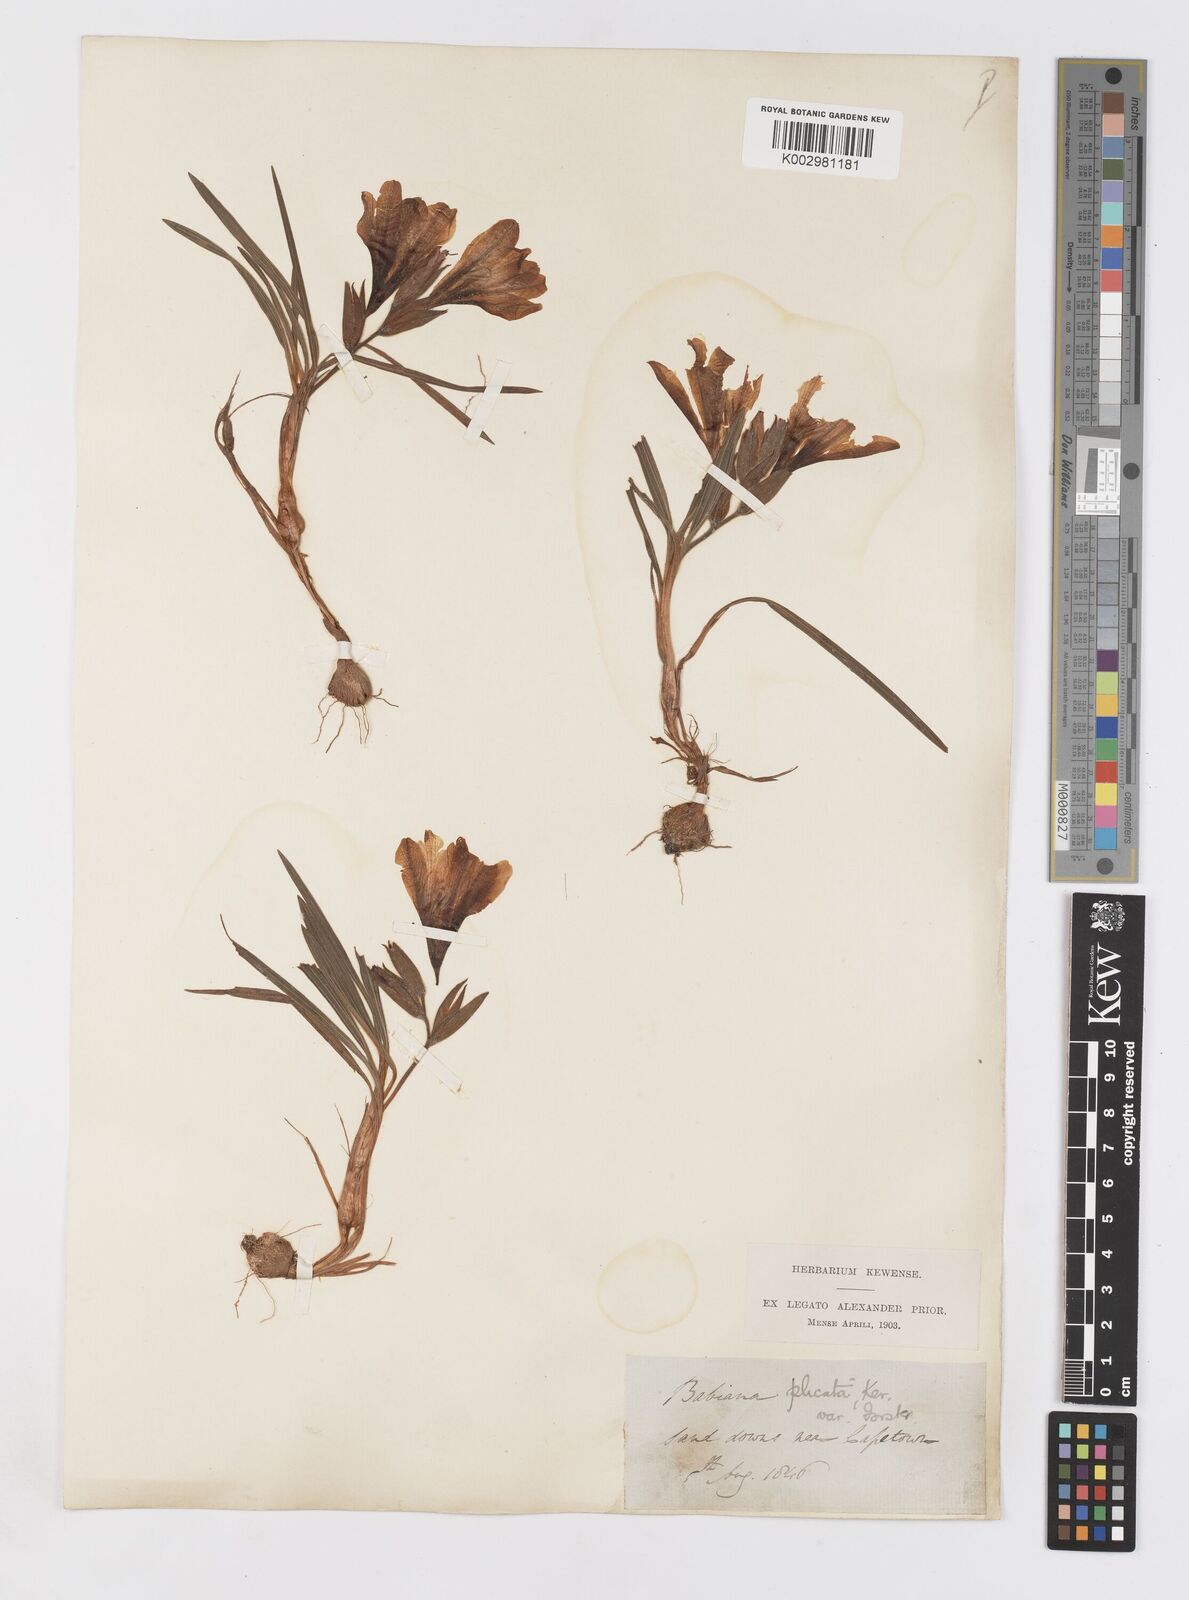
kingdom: Plantae
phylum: Tracheophyta
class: Liliopsida
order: Asparagales
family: Iridaceae
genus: Babiana
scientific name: Babiana fragrans
